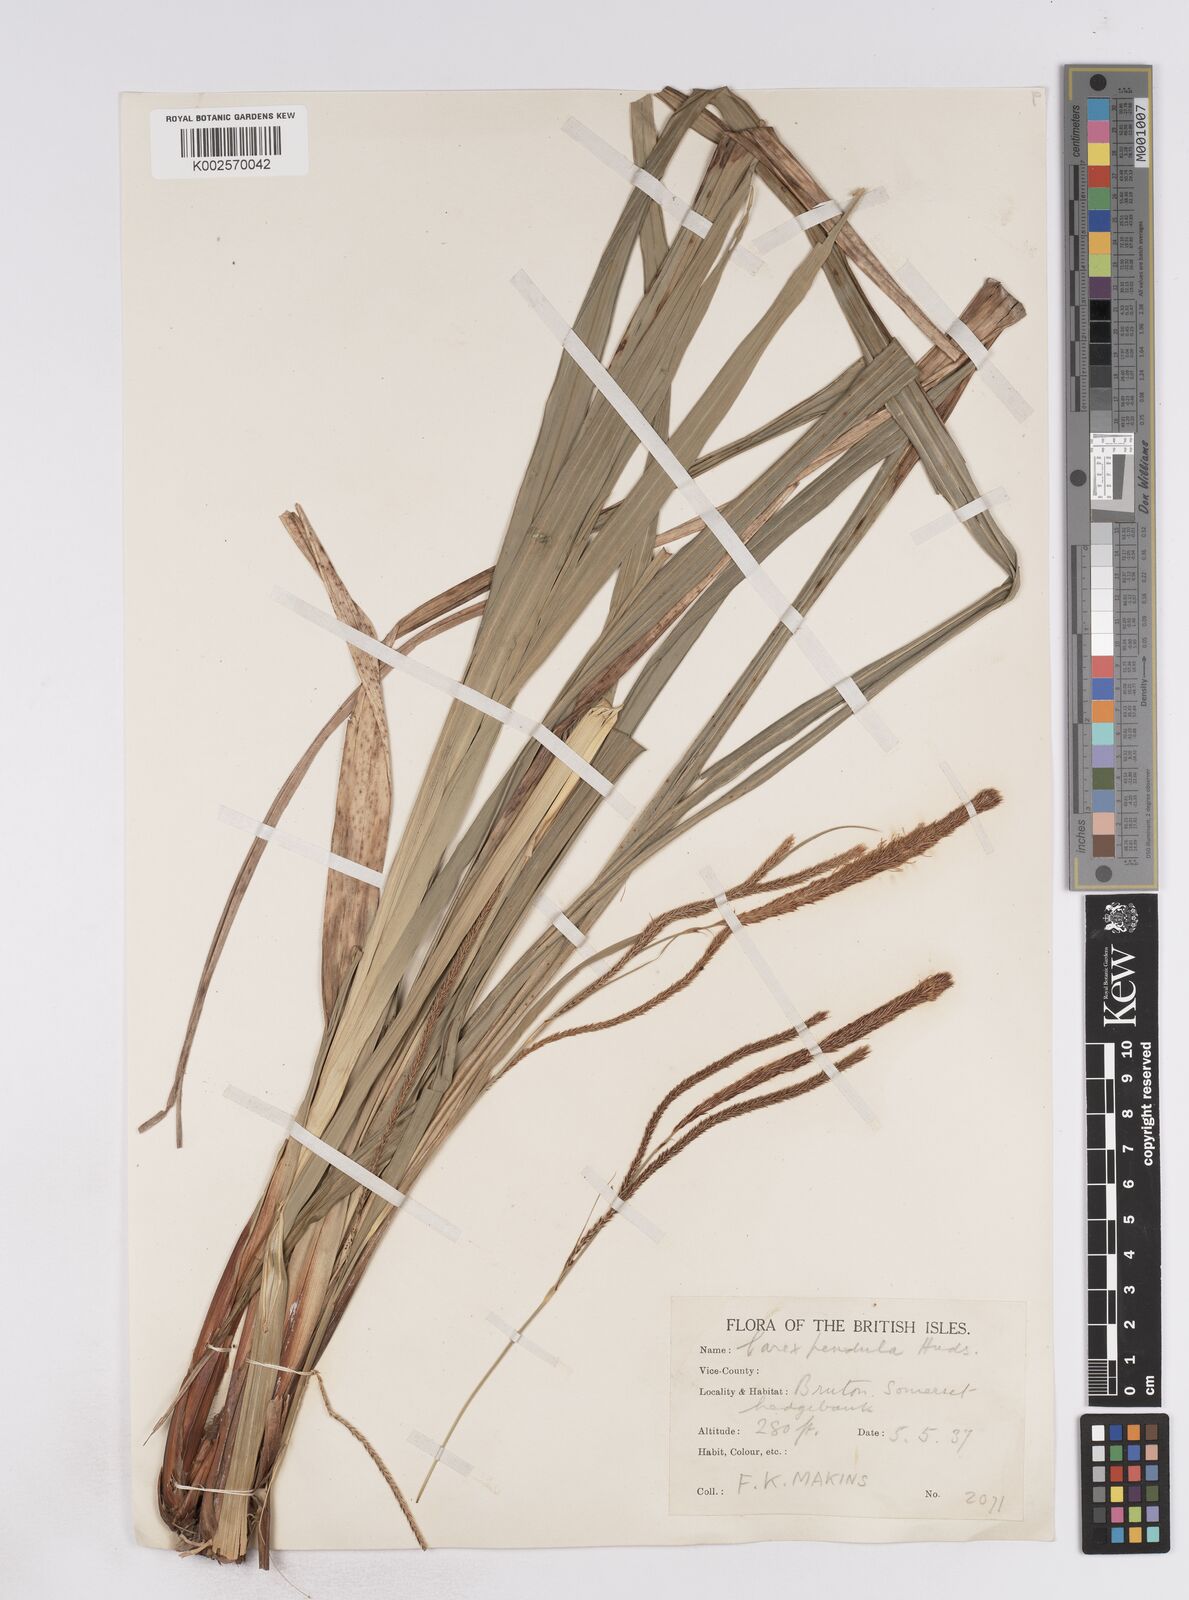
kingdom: Plantae
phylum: Tracheophyta
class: Liliopsida
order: Poales
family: Cyperaceae
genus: Carex
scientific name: Carex pendula
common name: Pendulous sedge
